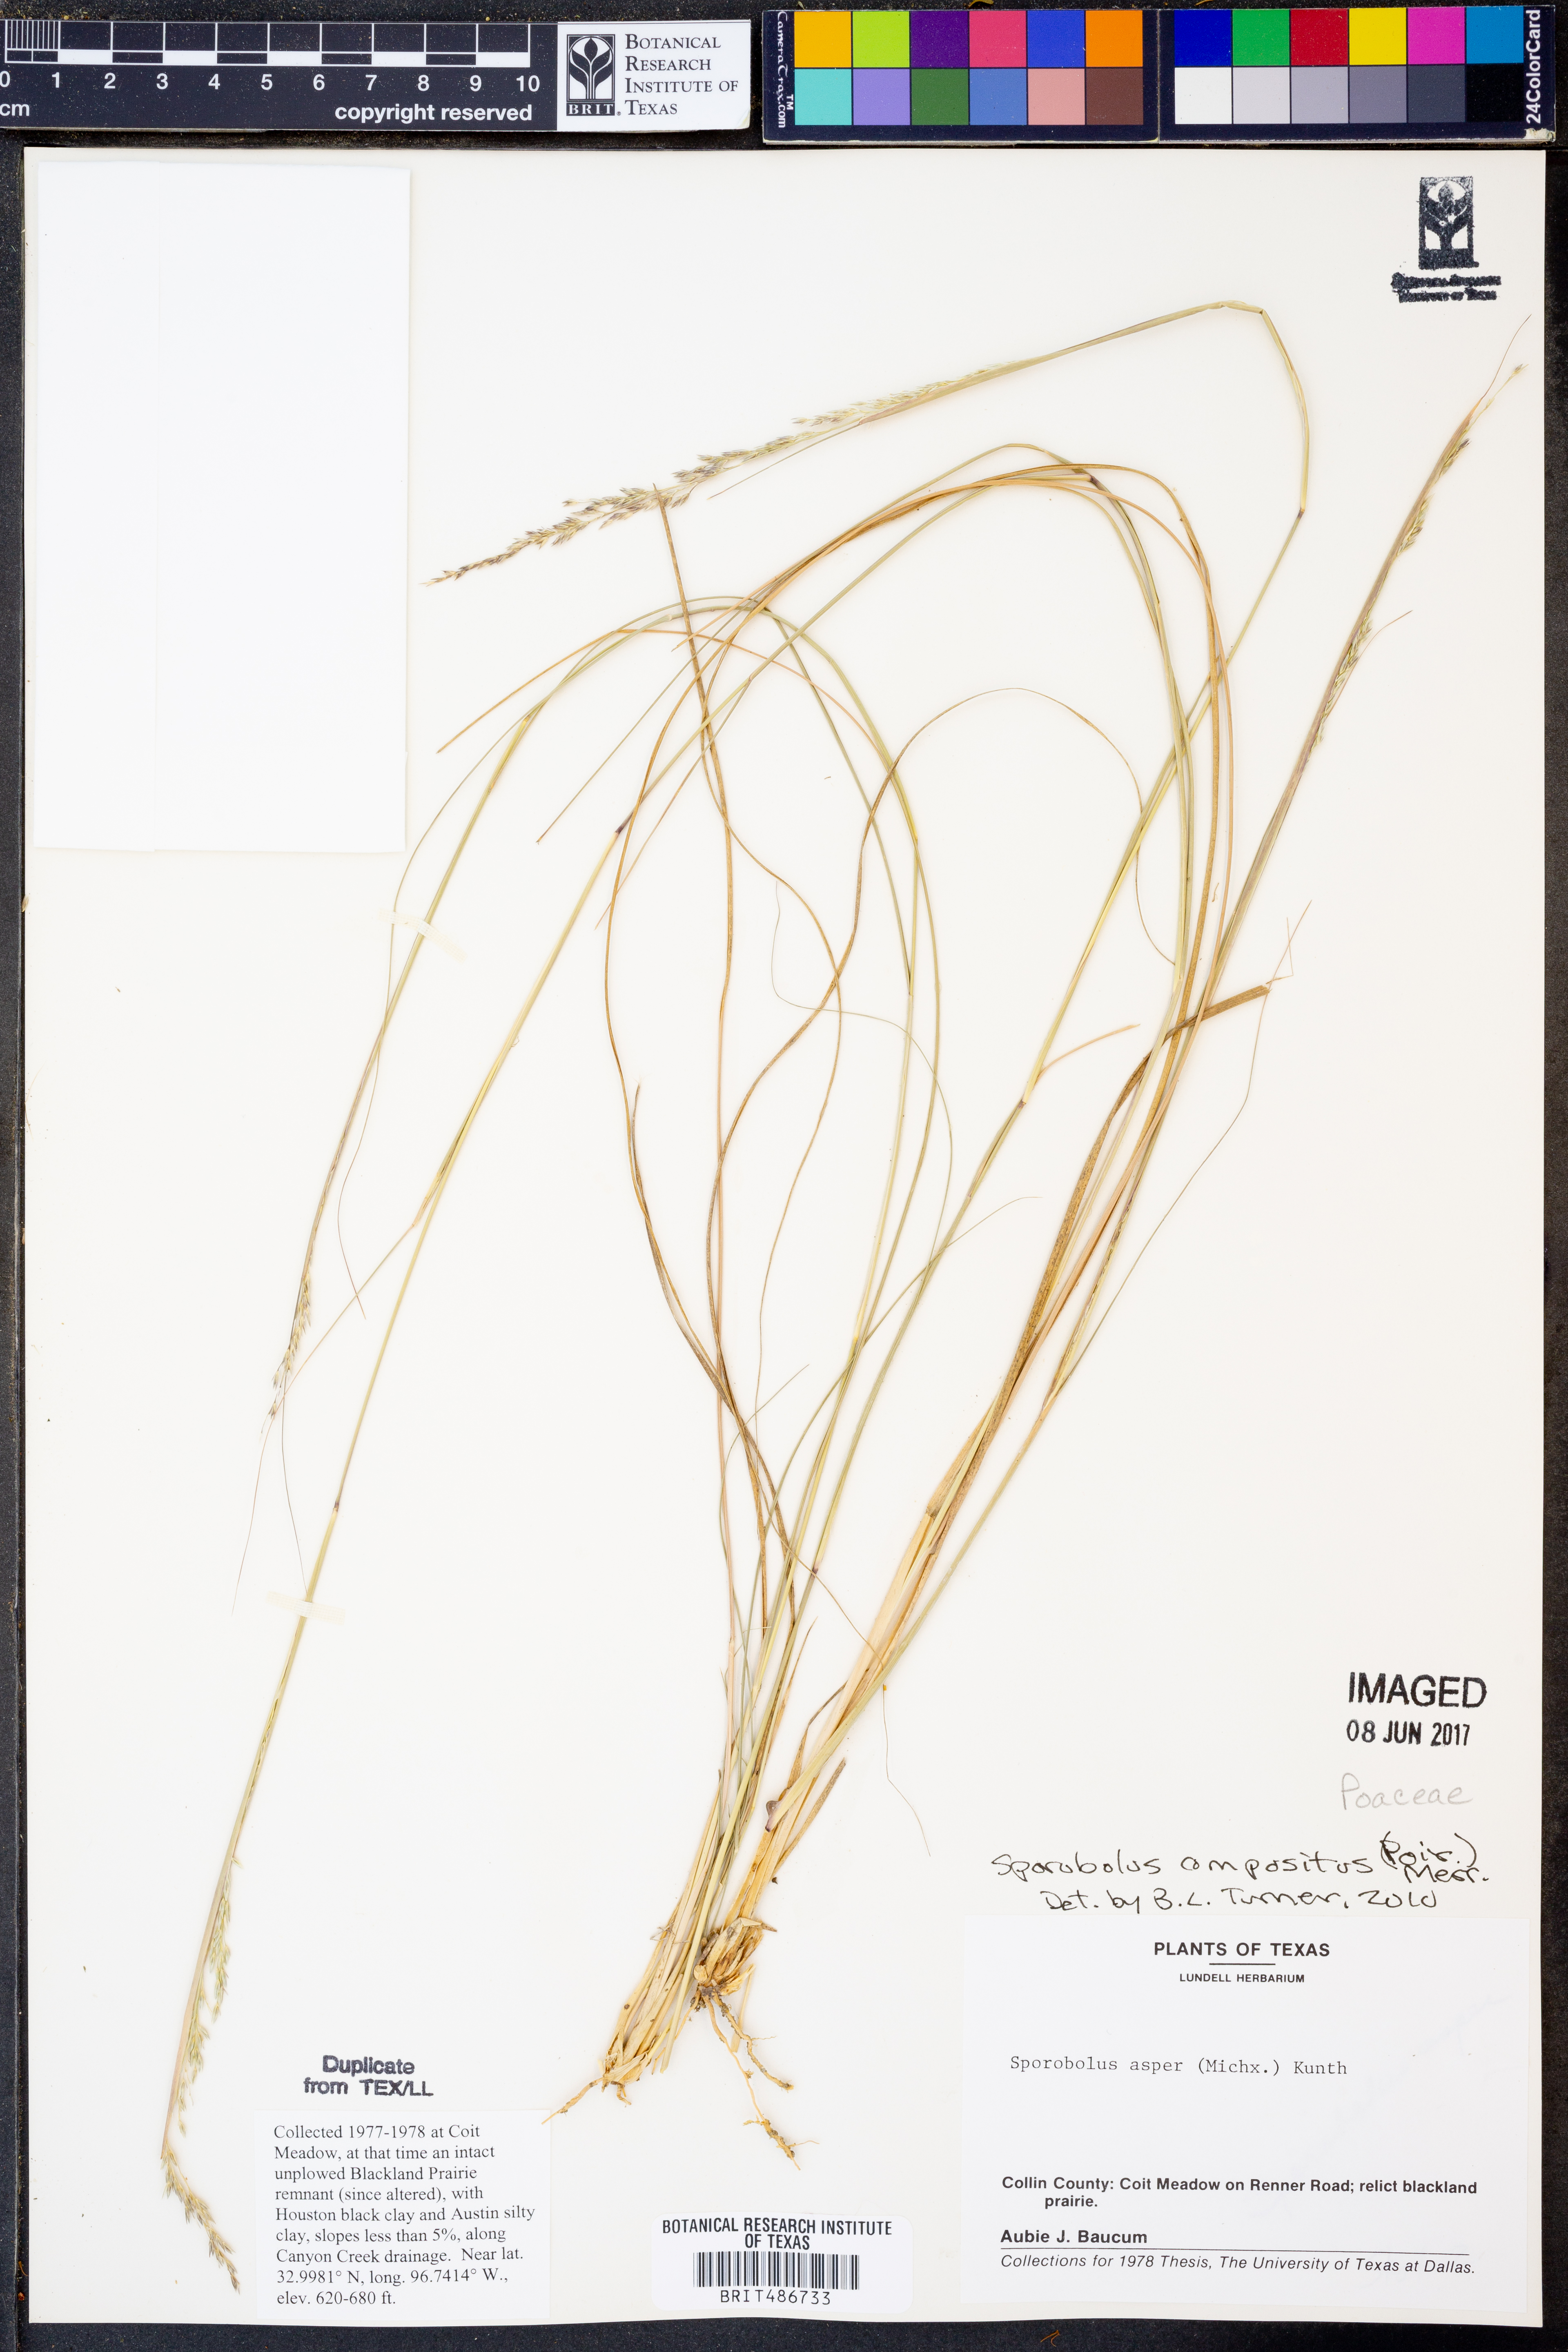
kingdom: Plantae
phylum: Tracheophyta
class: Liliopsida
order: Poales
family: Poaceae
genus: Sporobolus
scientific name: Sporobolus compositus
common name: Rough dropseed
